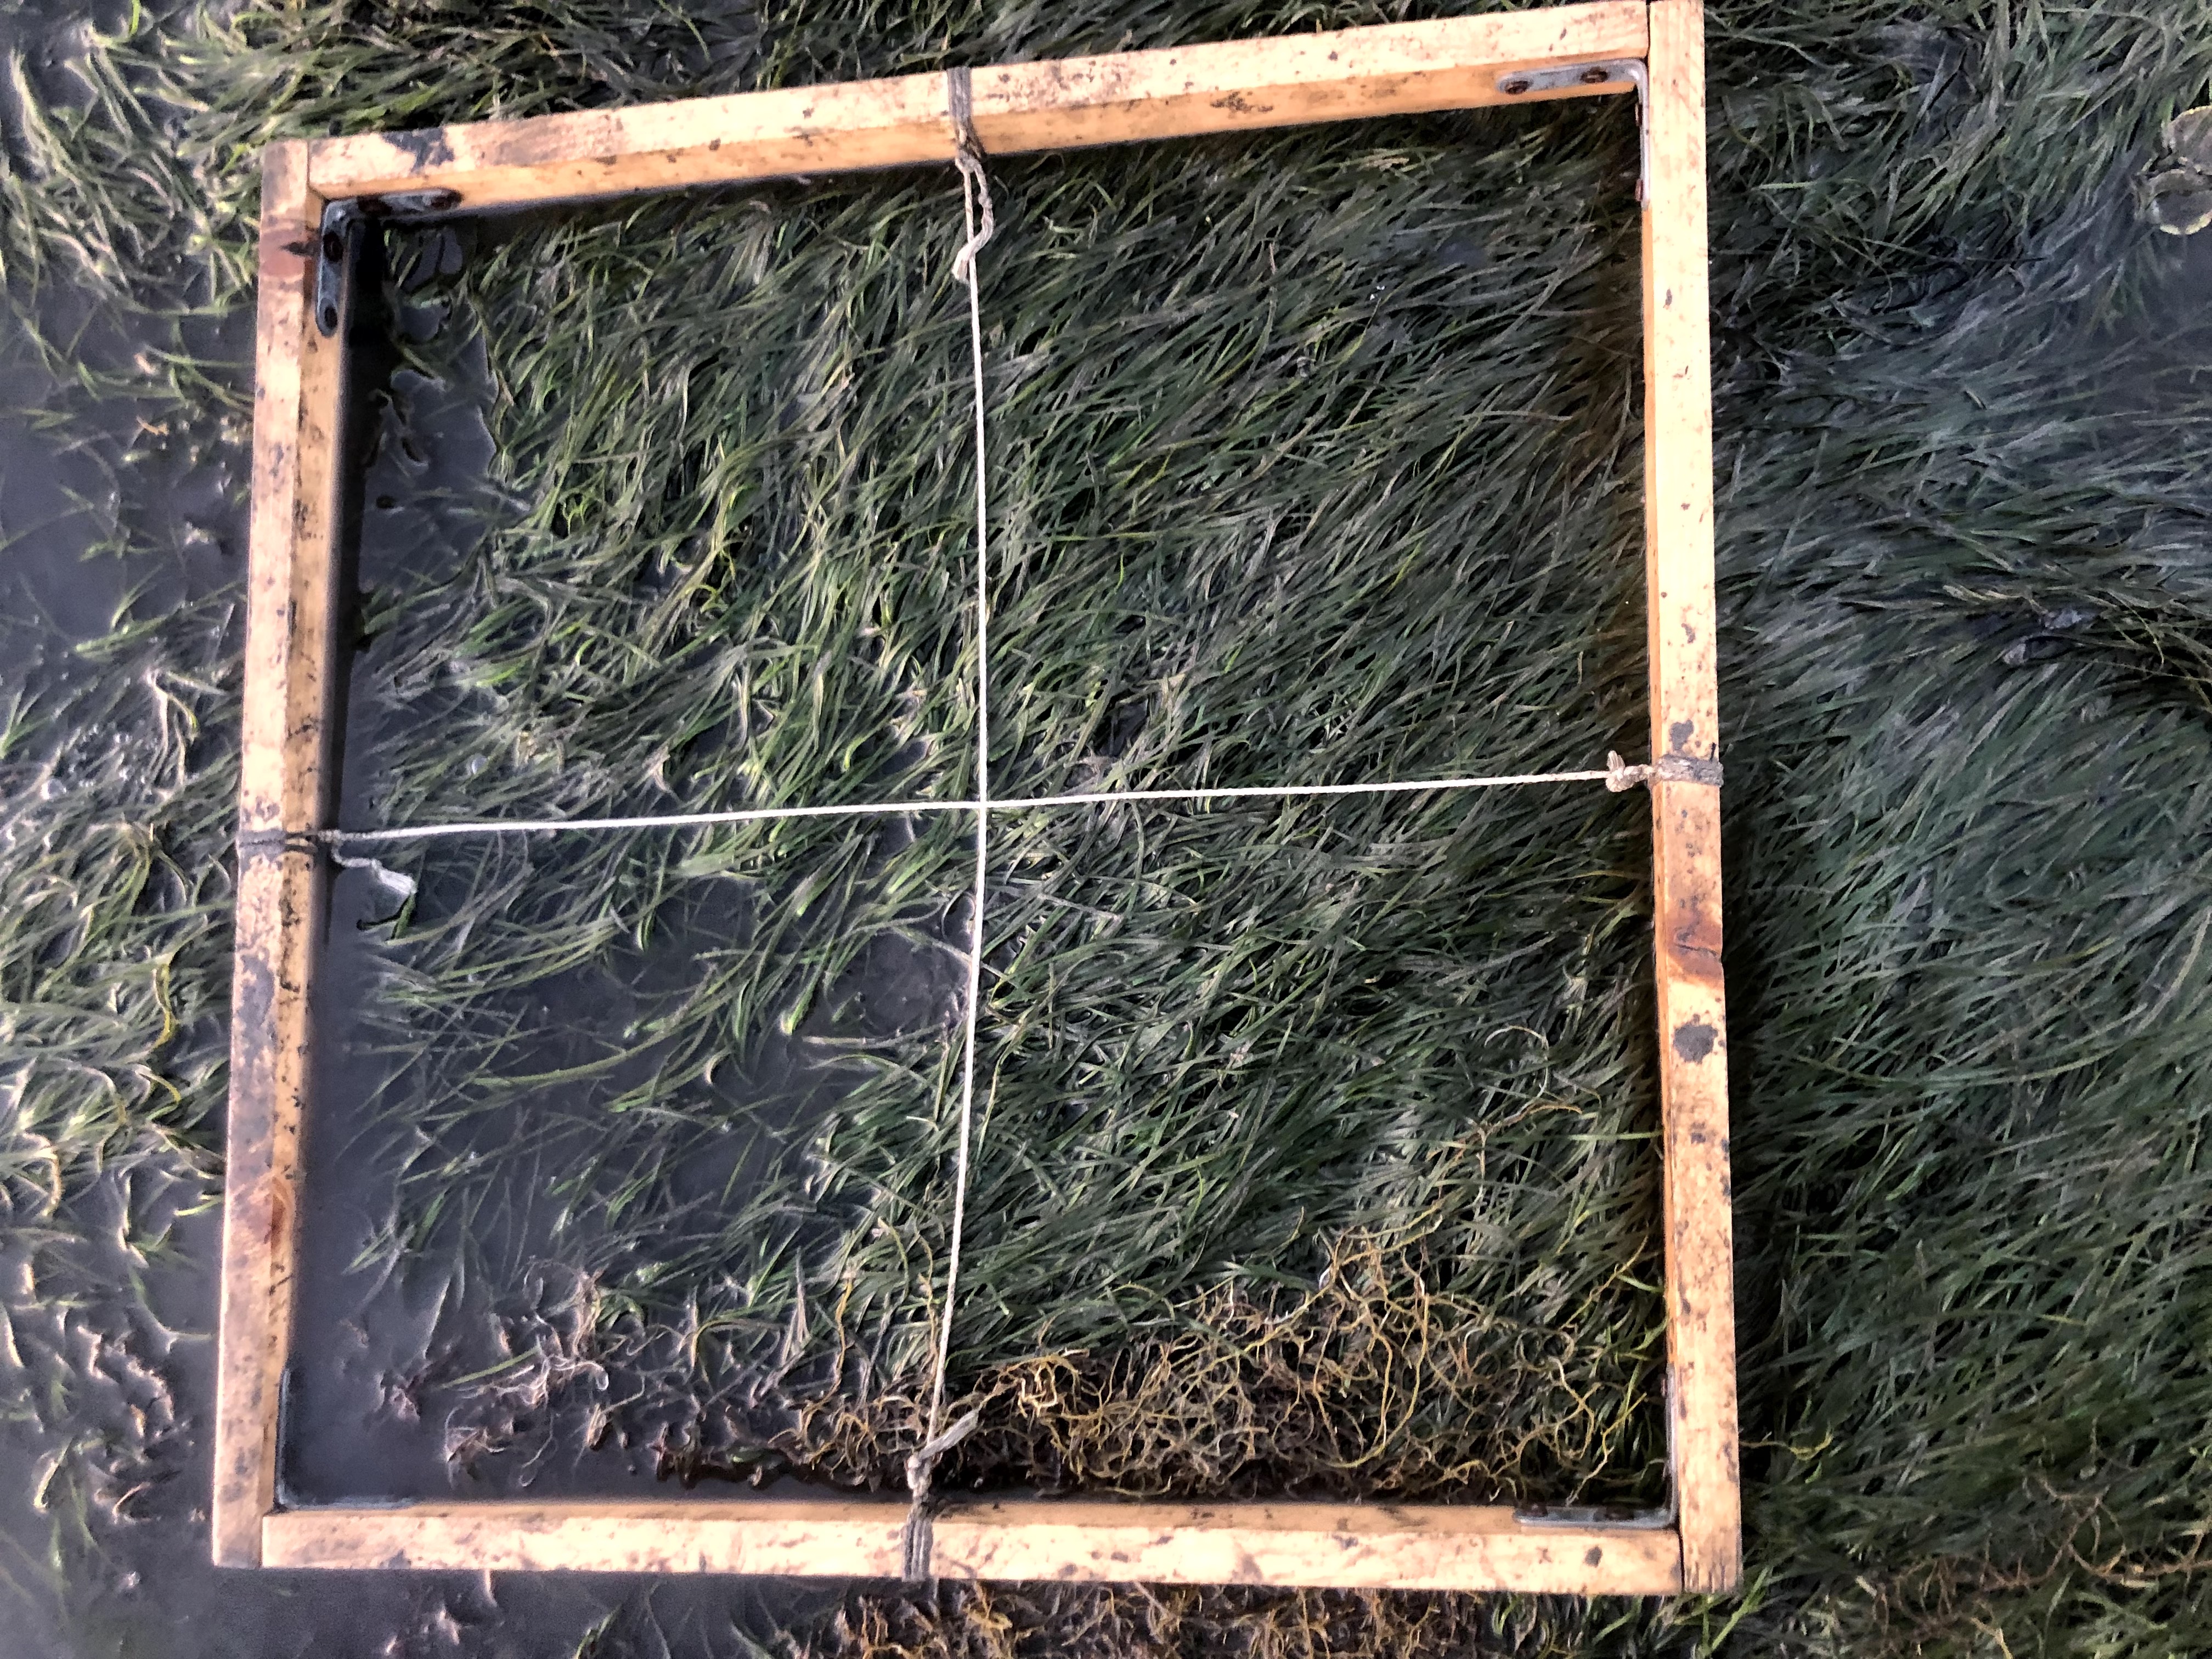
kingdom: Plantae
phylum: Tracheophyta
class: Liliopsida
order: Alismatales
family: Zosteraceae
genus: Zostera
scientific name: Zostera noltii
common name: Dwarf eelgrass
